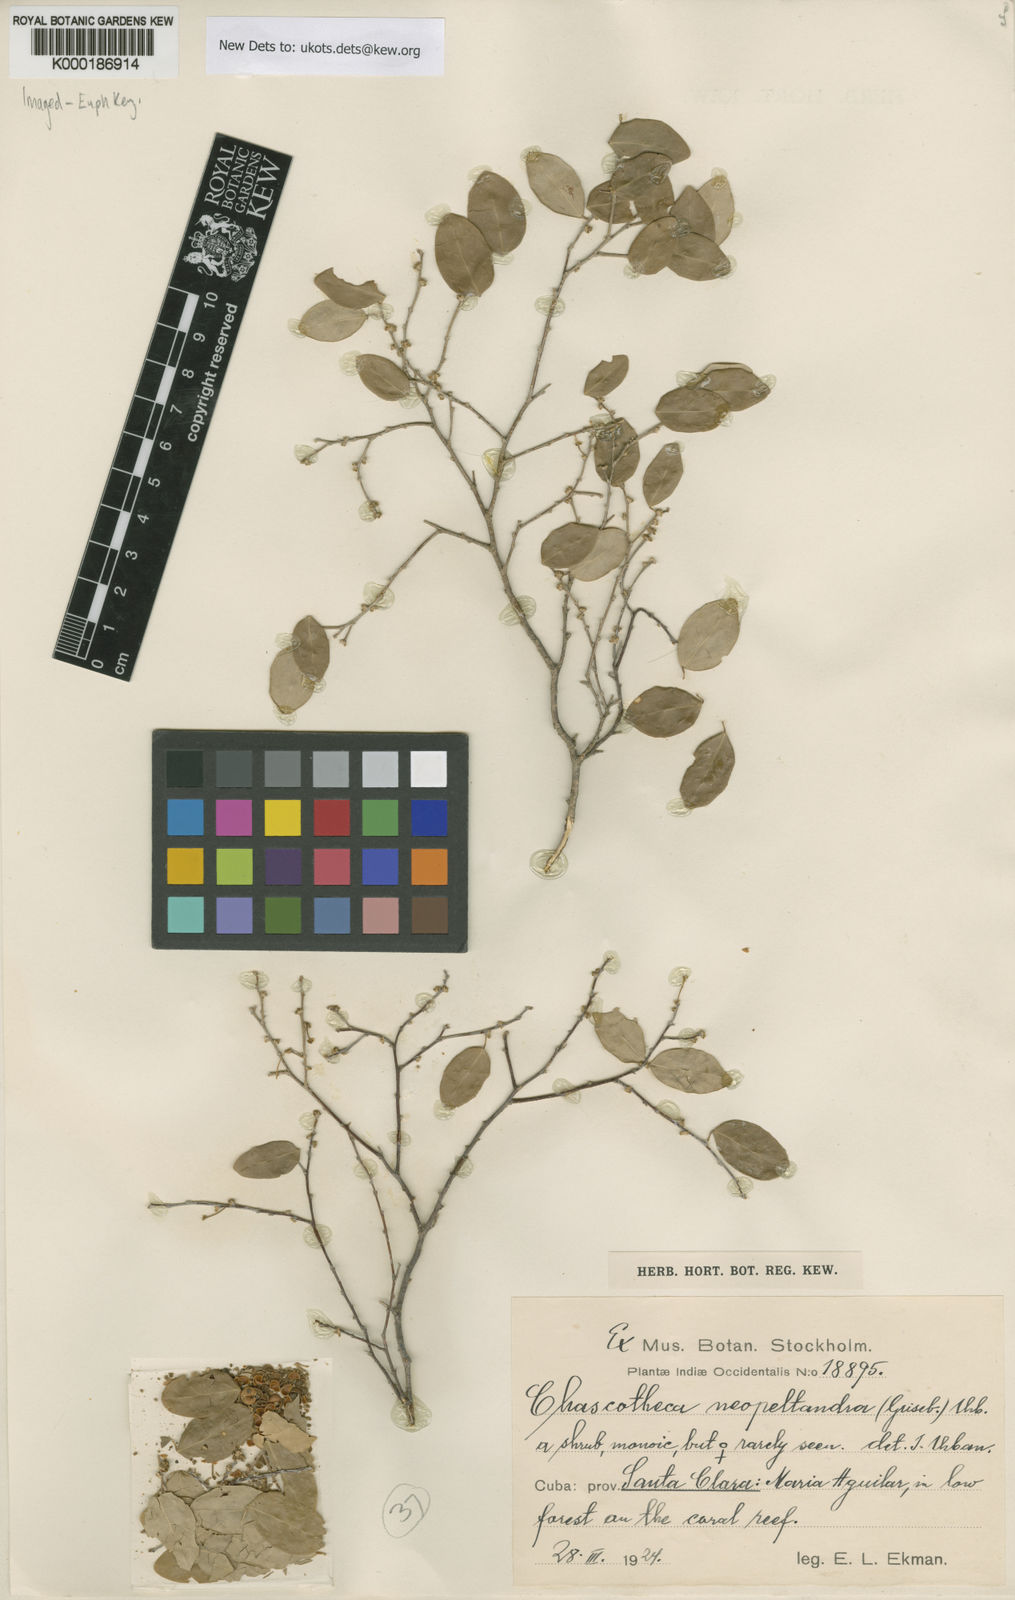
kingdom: Plantae
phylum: Tracheophyta
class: Magnoliopsida
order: Malpighiales
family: Phyllanthaceae
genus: Chascotheca
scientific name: Chascotheca neopeltandra
